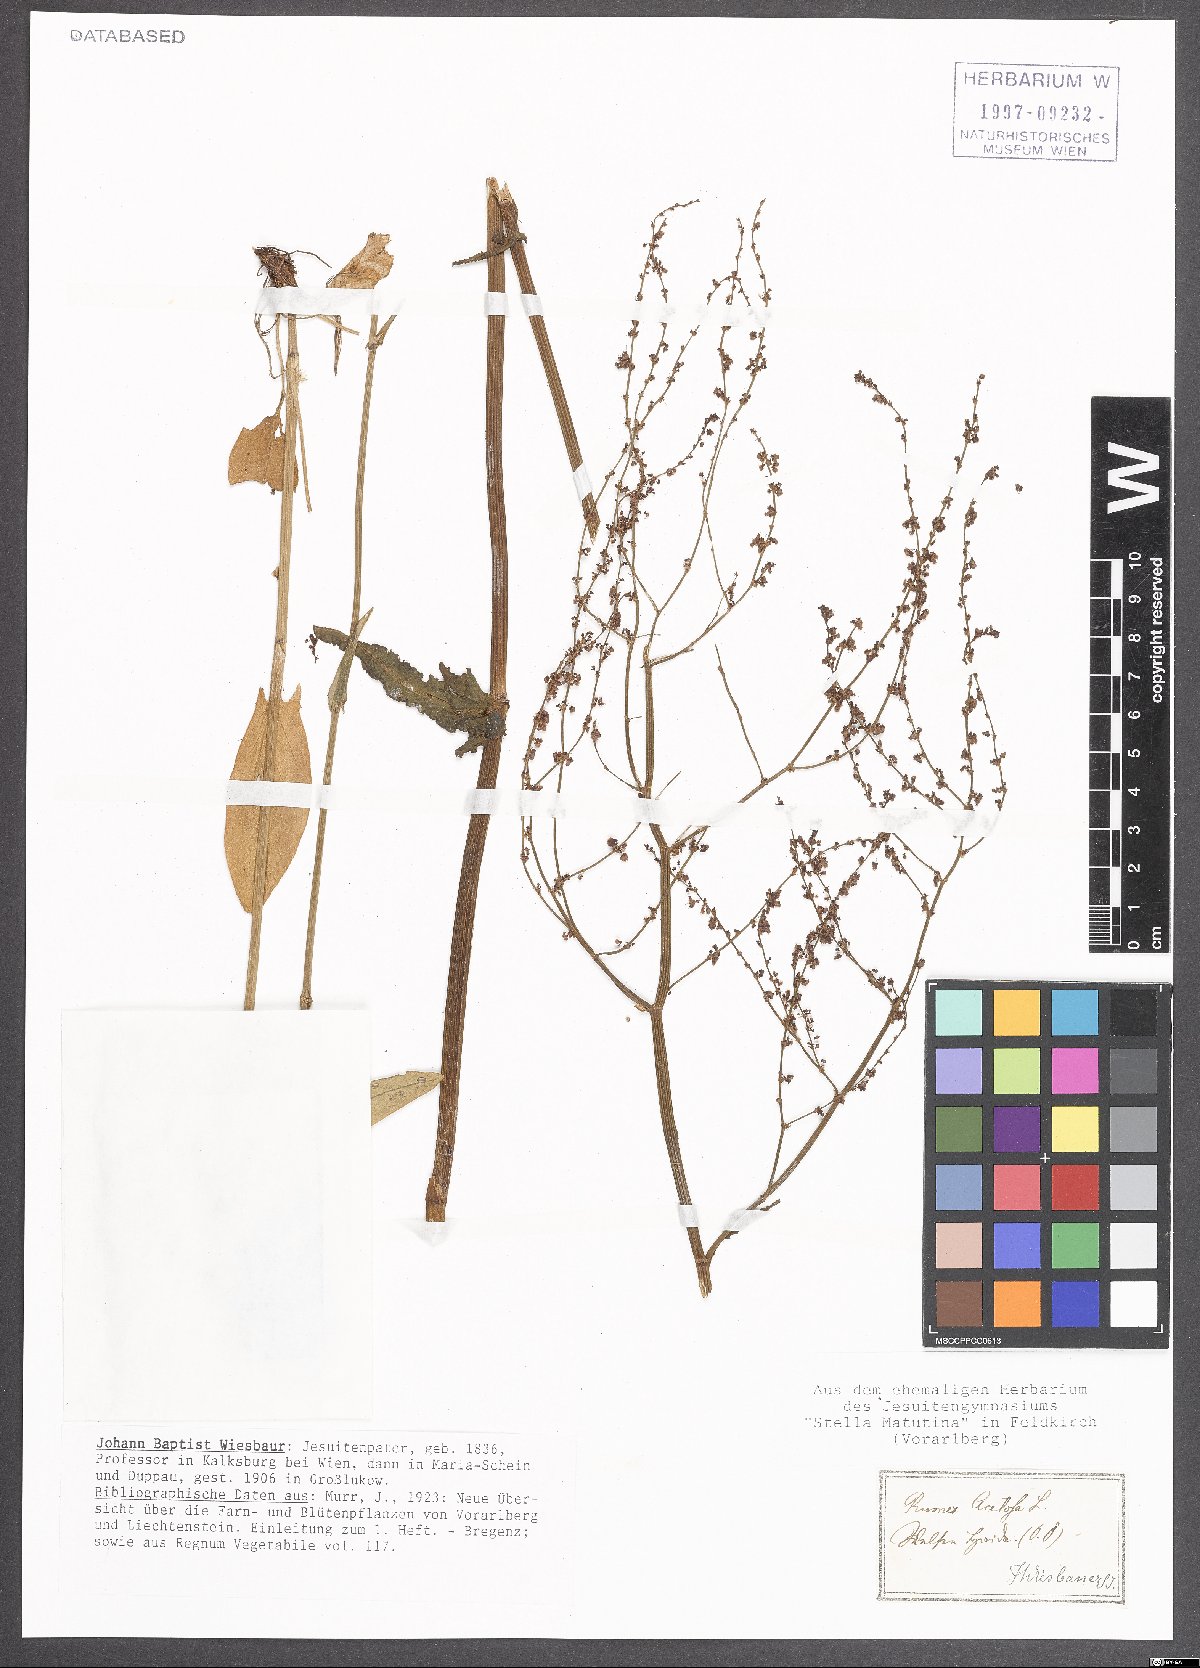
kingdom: Plantae
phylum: Tracheophyta
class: Magnoliopsida
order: Caryophyllales
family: Polygonaceae
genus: Rumex
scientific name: Rumex acetosa
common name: Garden sorrel
